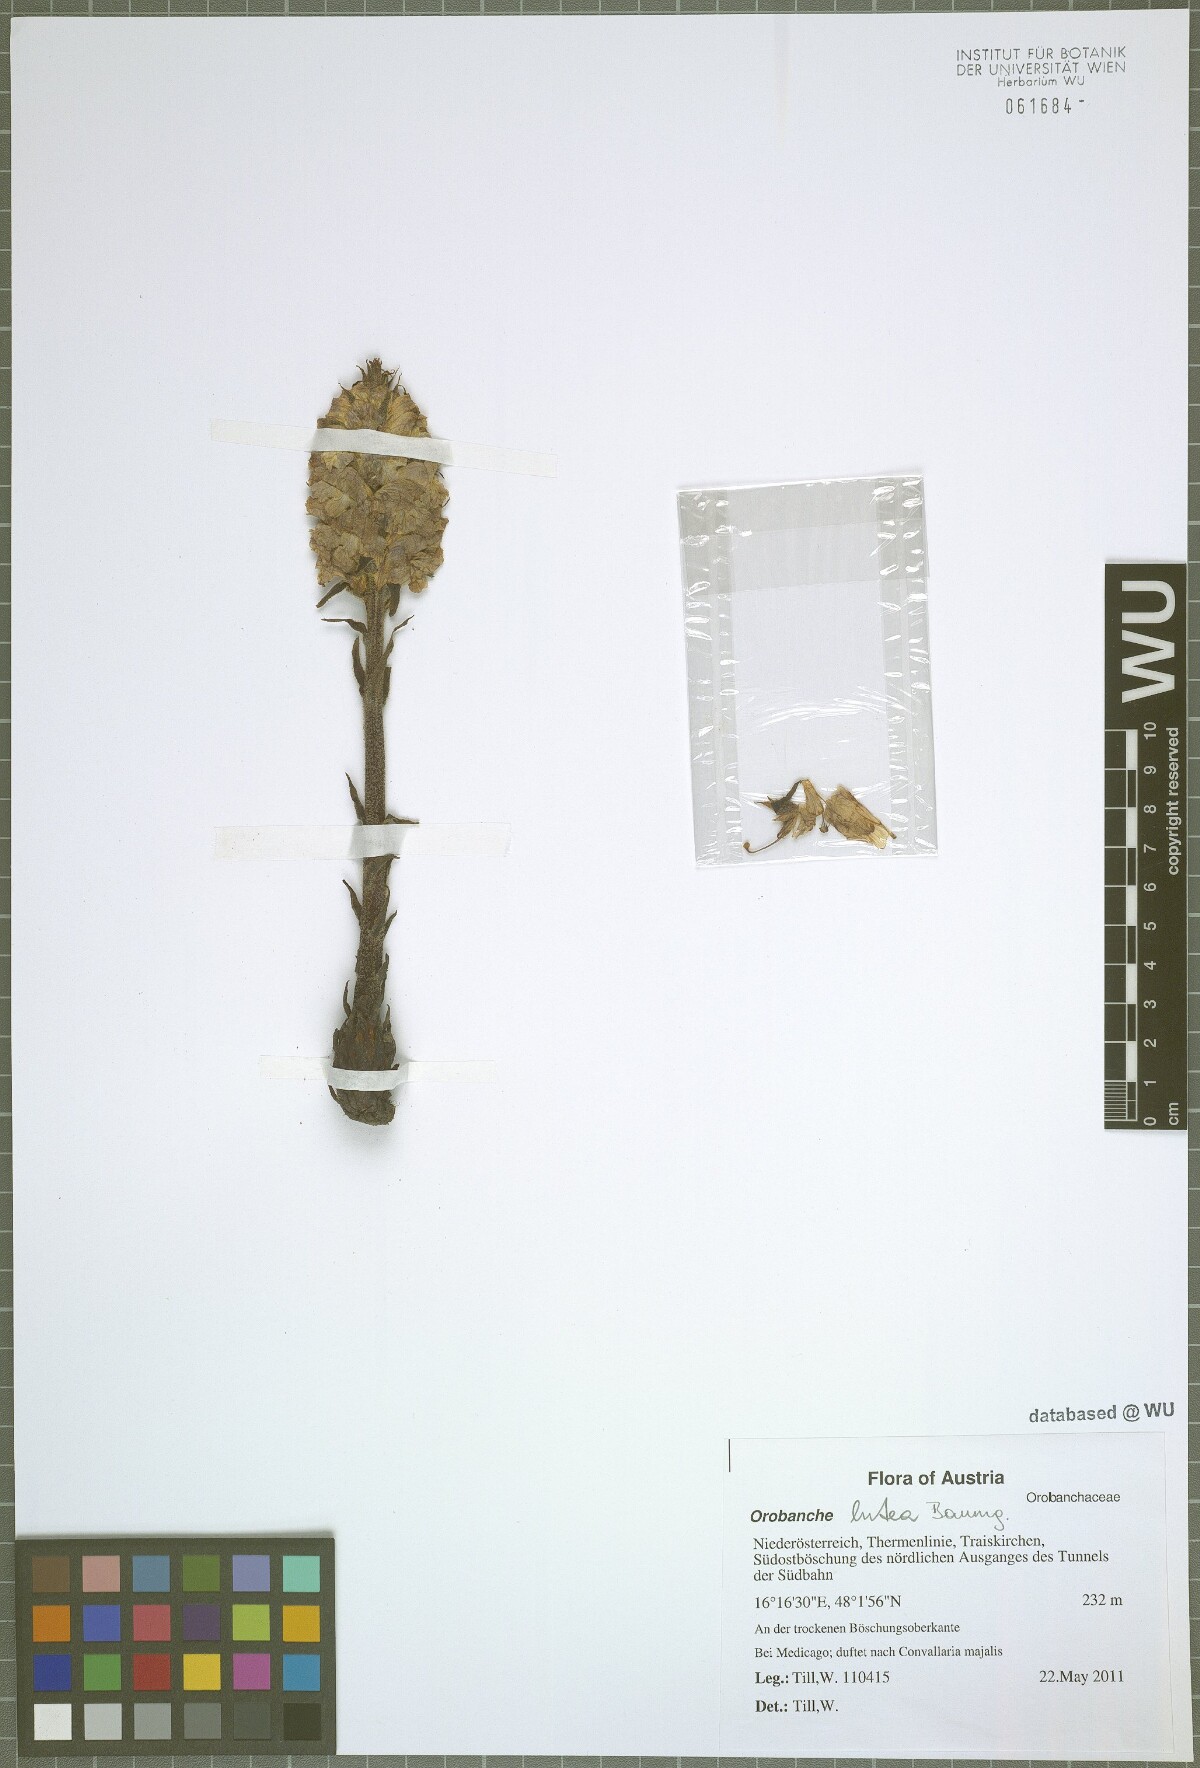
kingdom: Plantae
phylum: Tracheophyta
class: Magnoliopsida
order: Lamiales
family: Orobanchaceae
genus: Orobanche
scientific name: Orobanche lutea
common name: Yellow broomrape
